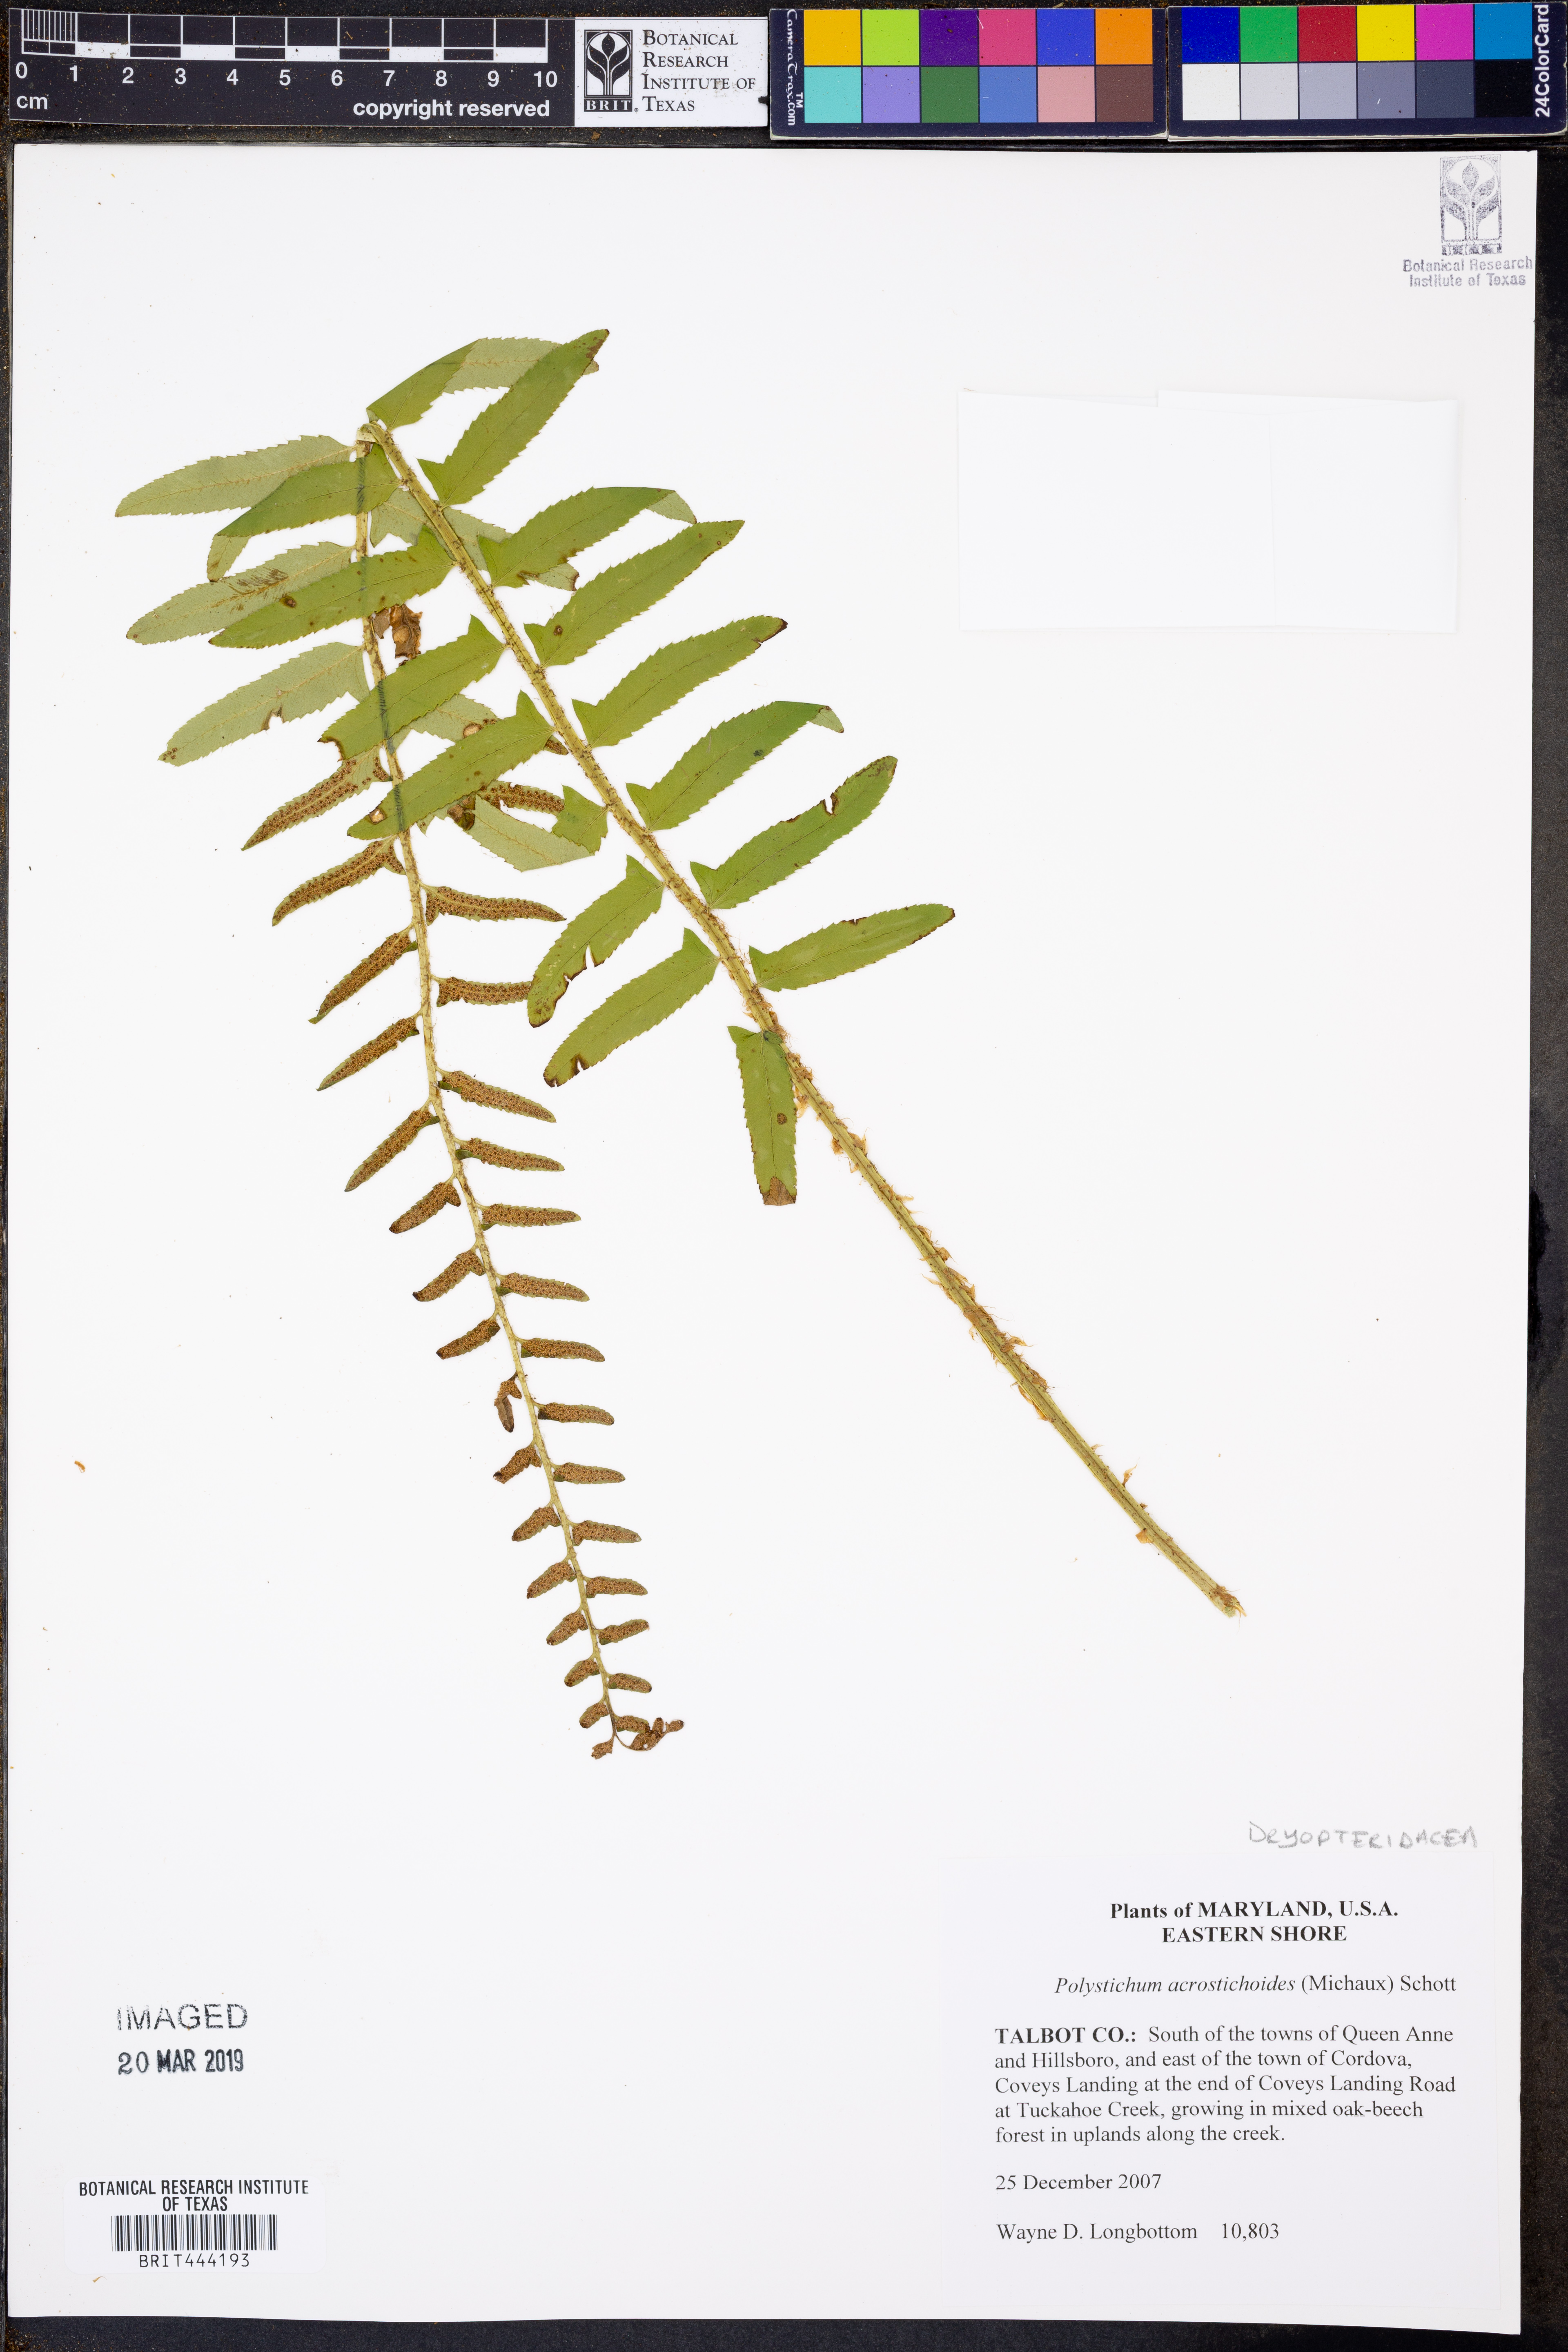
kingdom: Plantae
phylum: Tracheophyta
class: Polypodiopsida
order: Polypodiales
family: Dryopteridaceae
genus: Polystichum
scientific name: Polystichum acrostichoides
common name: Christmas fern
